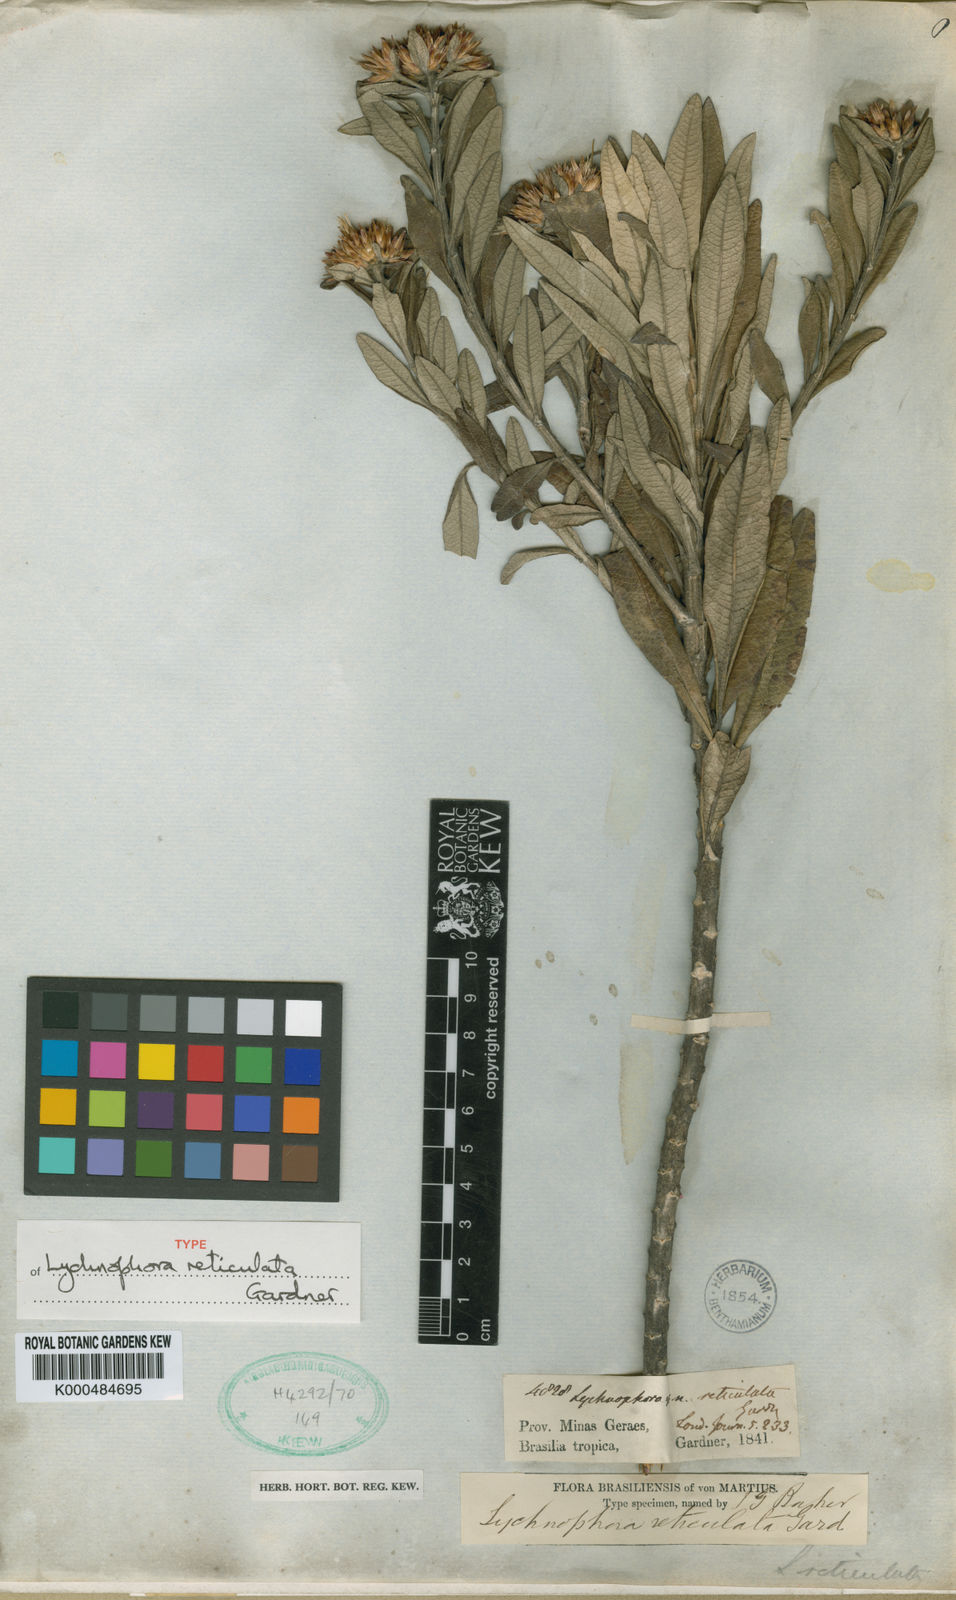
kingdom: Plantae
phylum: Tracheophyta
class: Magnoliopsida
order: Asterales
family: Asteraceae
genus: Piptolepis
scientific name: Piptolepis
